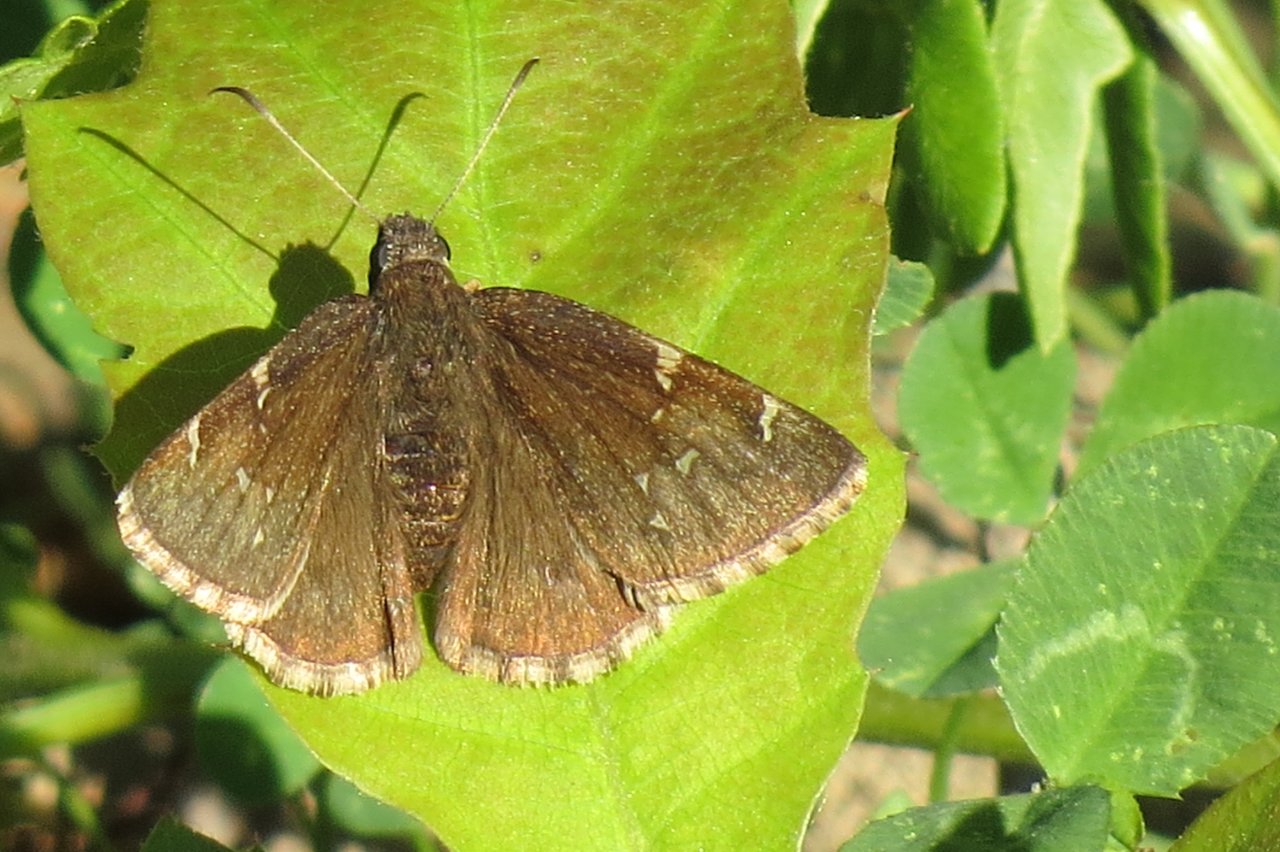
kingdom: Animalia
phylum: Arthropoda
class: Insecta
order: Lepidoptera
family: Hesperiidae
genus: Autochton
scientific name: Autochton
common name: Northern Cloudywing
